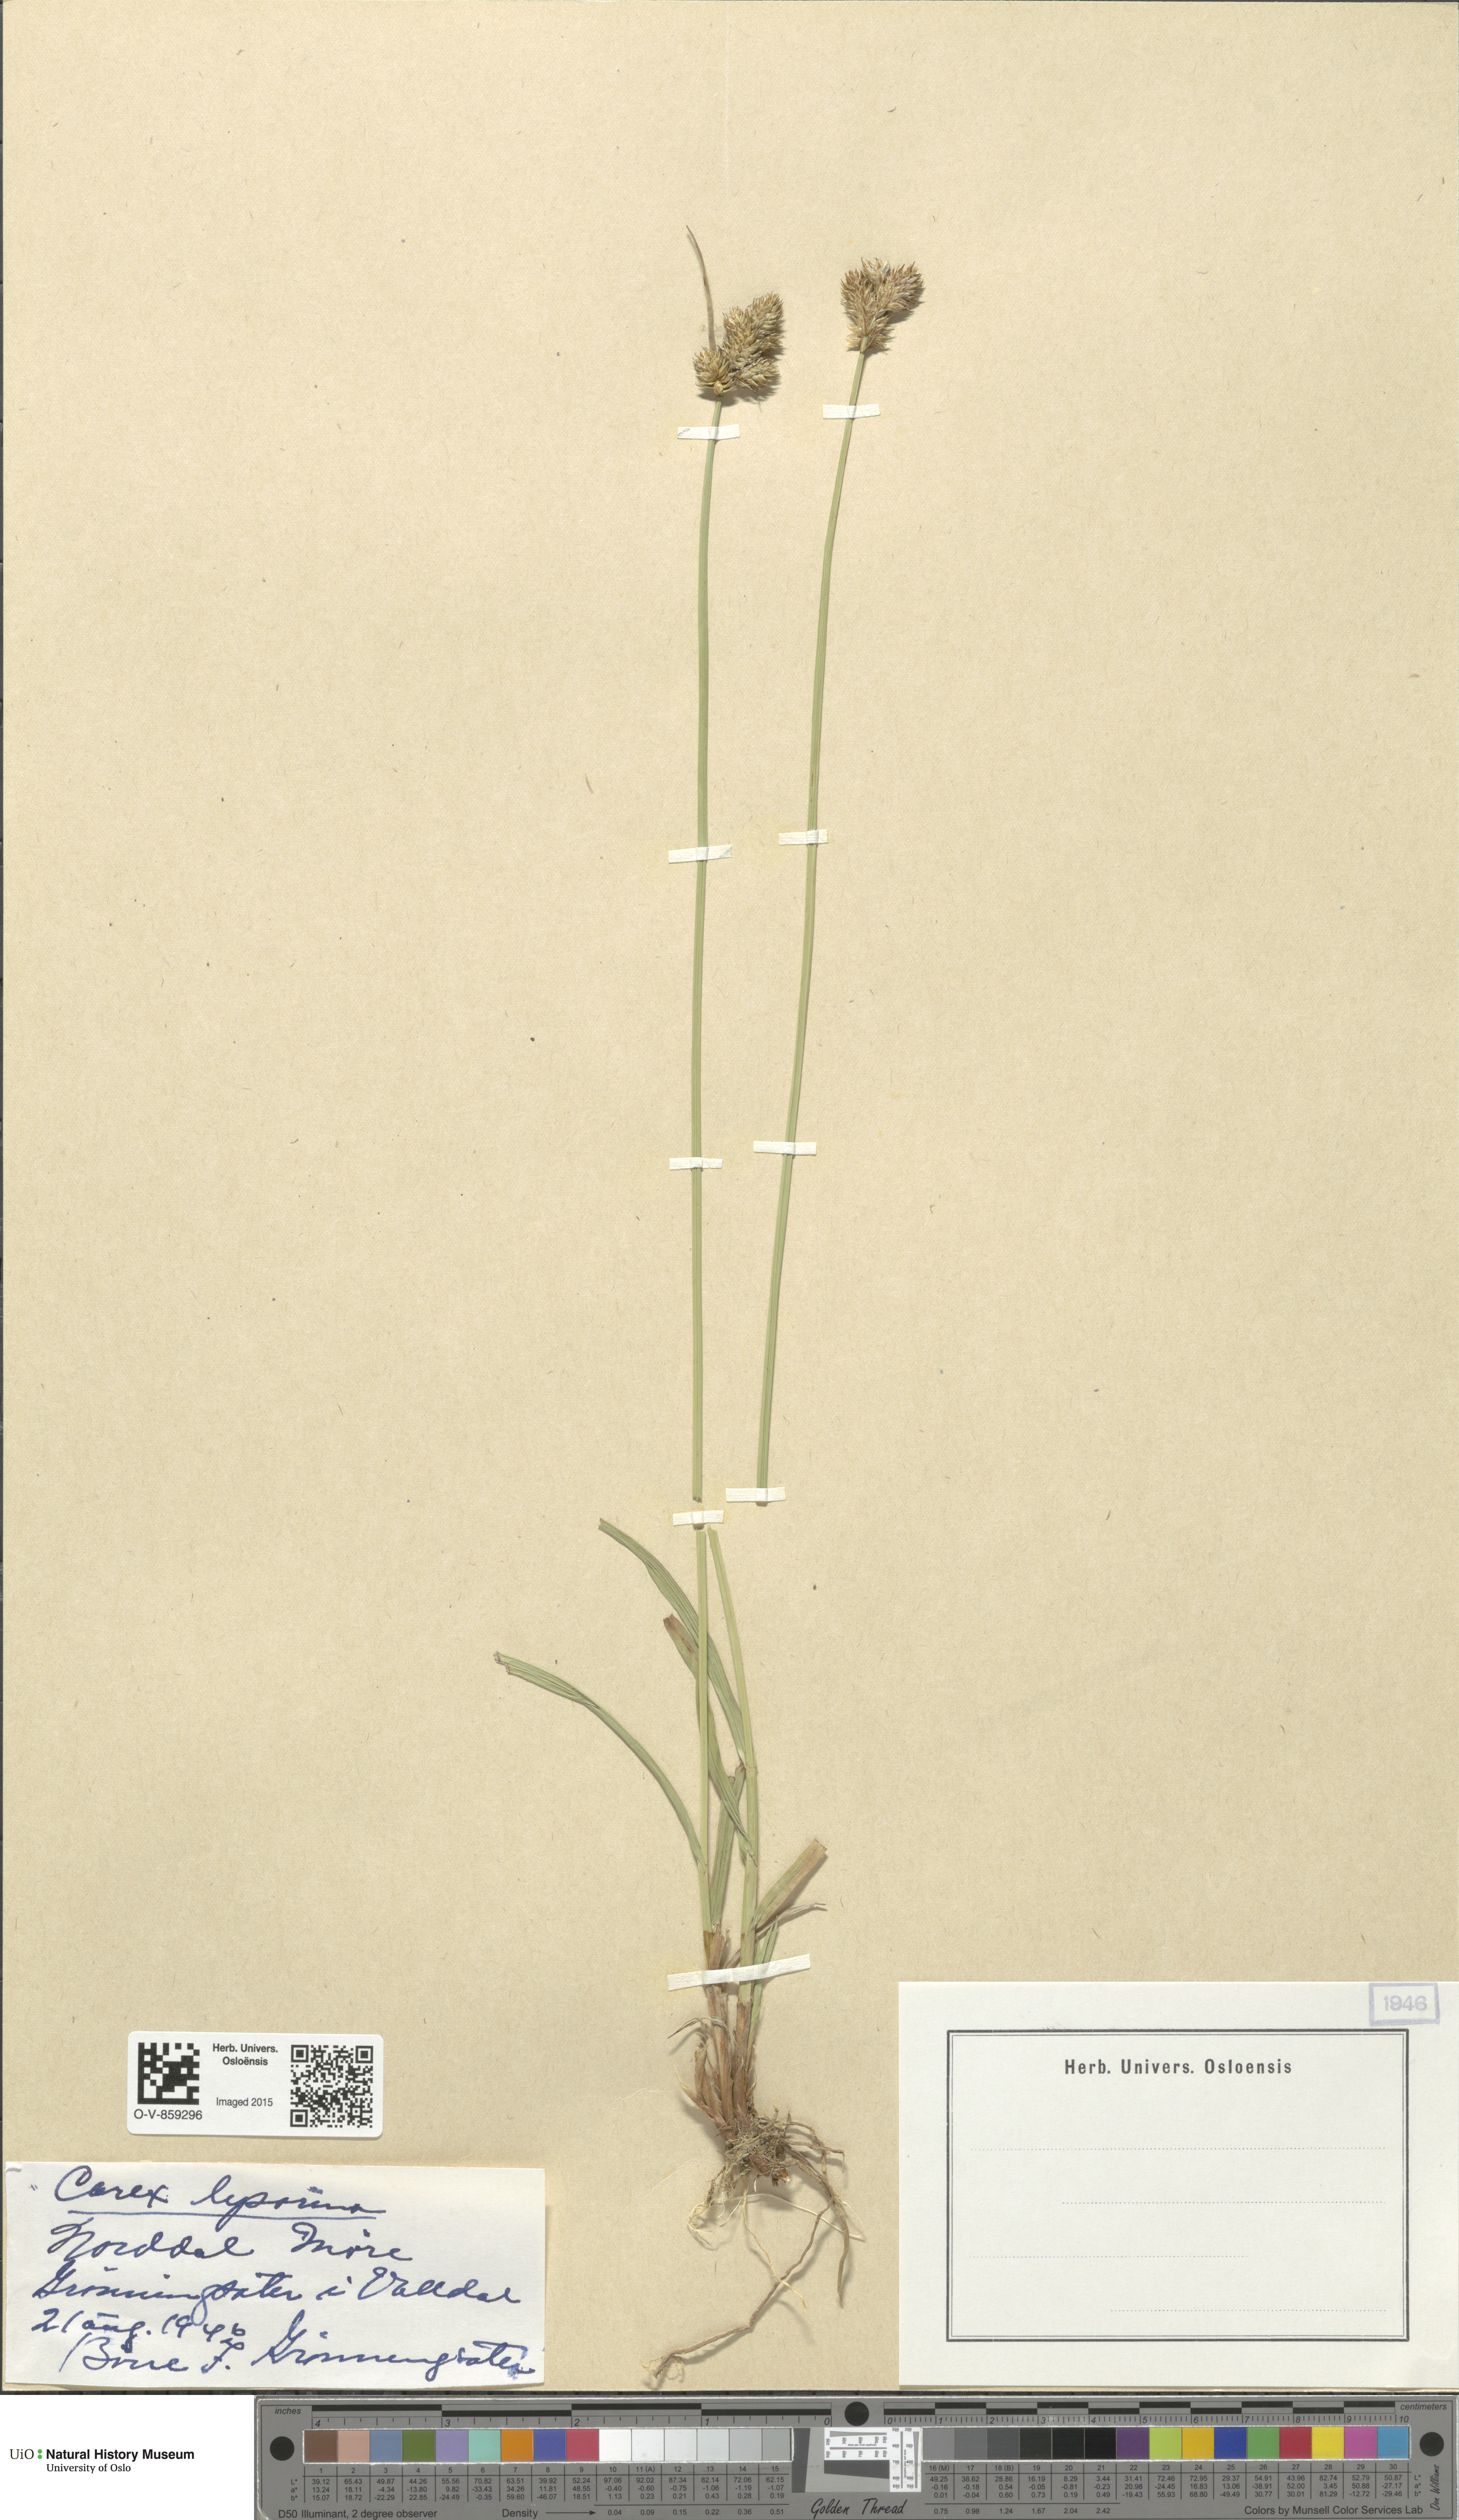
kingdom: Plantae
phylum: Tracheophyta
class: Liliopsida
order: Poales
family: Cyperaceae
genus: Carex
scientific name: Carex leporina
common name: Oval sedge
